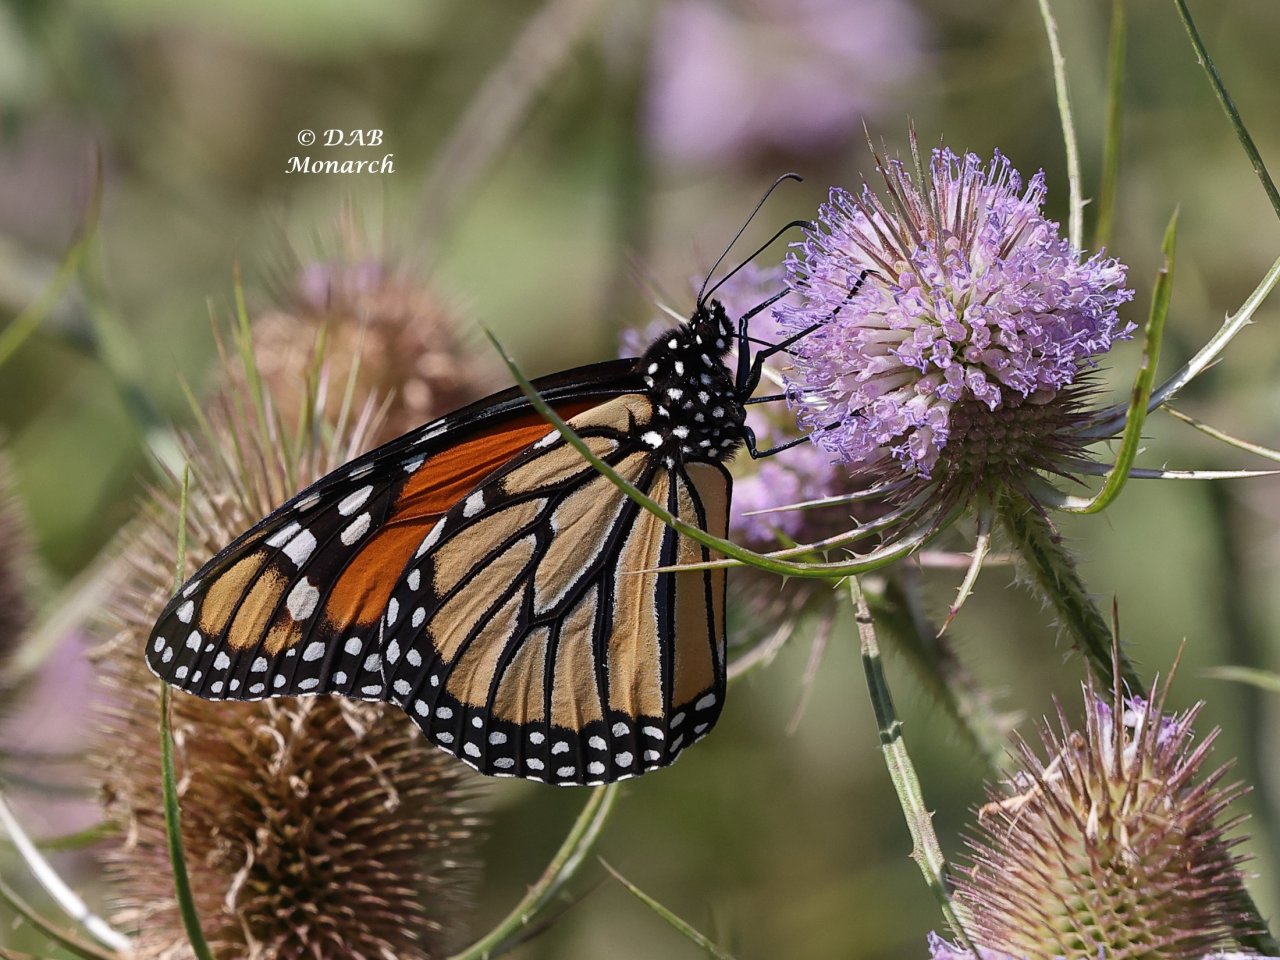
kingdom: Animalia
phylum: Arthropoda
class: Insecta
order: Lepidoptera
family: Nymphalidae
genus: Danaus
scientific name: Danaus plexippus
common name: Monarch
